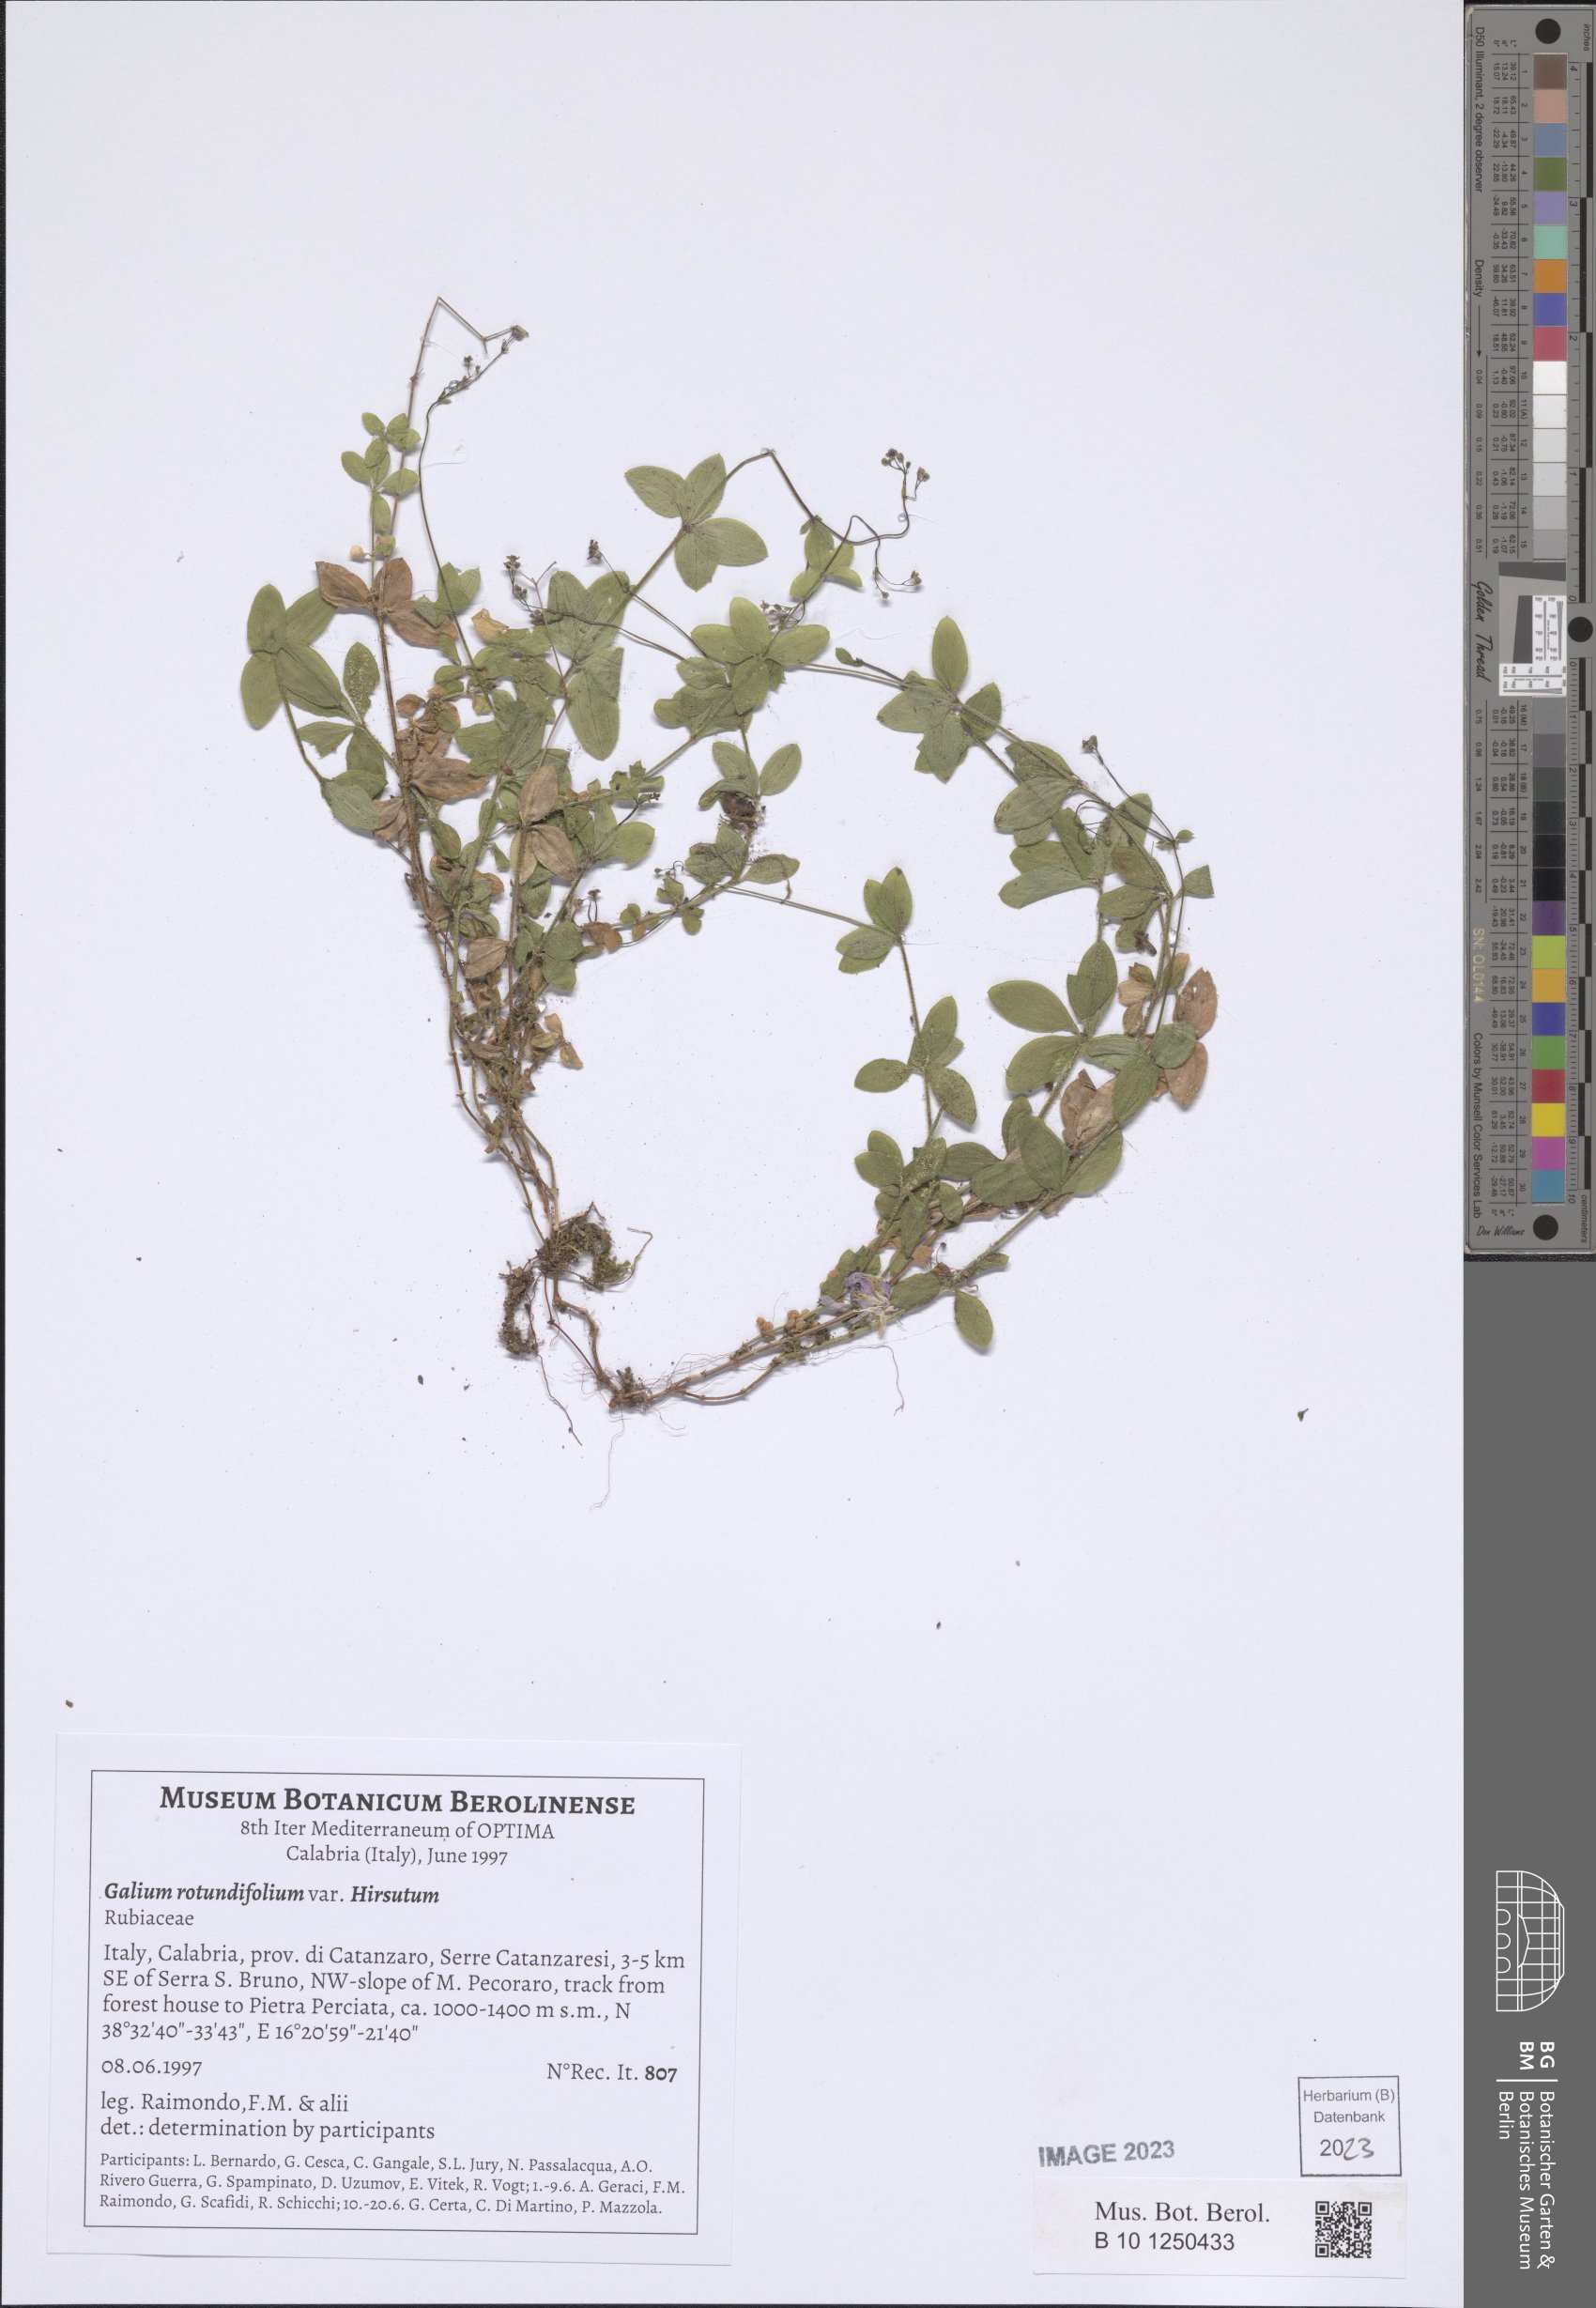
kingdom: Plantae
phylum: Tracheophyta
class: Magnoliopsida
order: Gentianales
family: Rubiaceae
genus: Galium
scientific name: Galium thunbergianum
